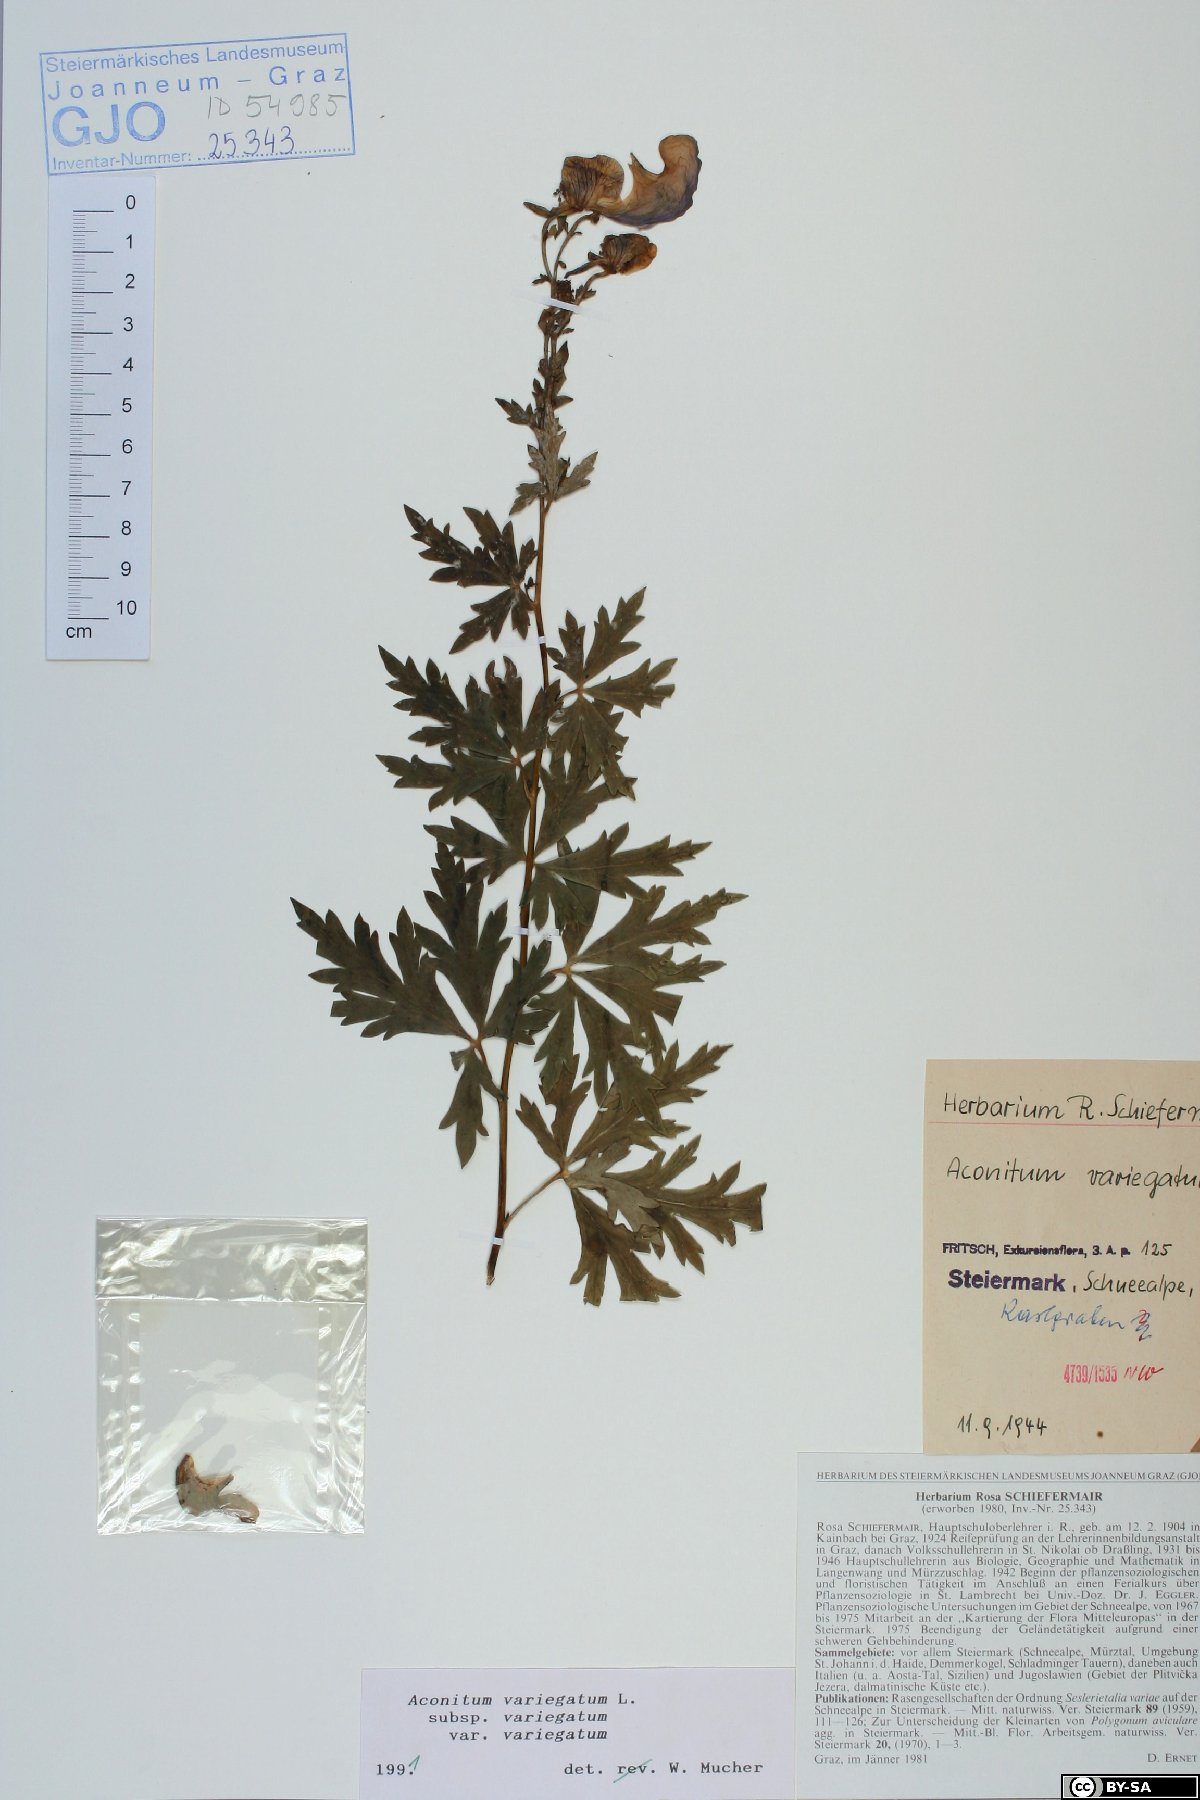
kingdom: Plantae
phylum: Tracheophyta
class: Magnoliopsida
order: Ranunculales
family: Ranunculaceae
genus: Aconitum
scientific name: Aconitum variegatum
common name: Manchurian monkshood
